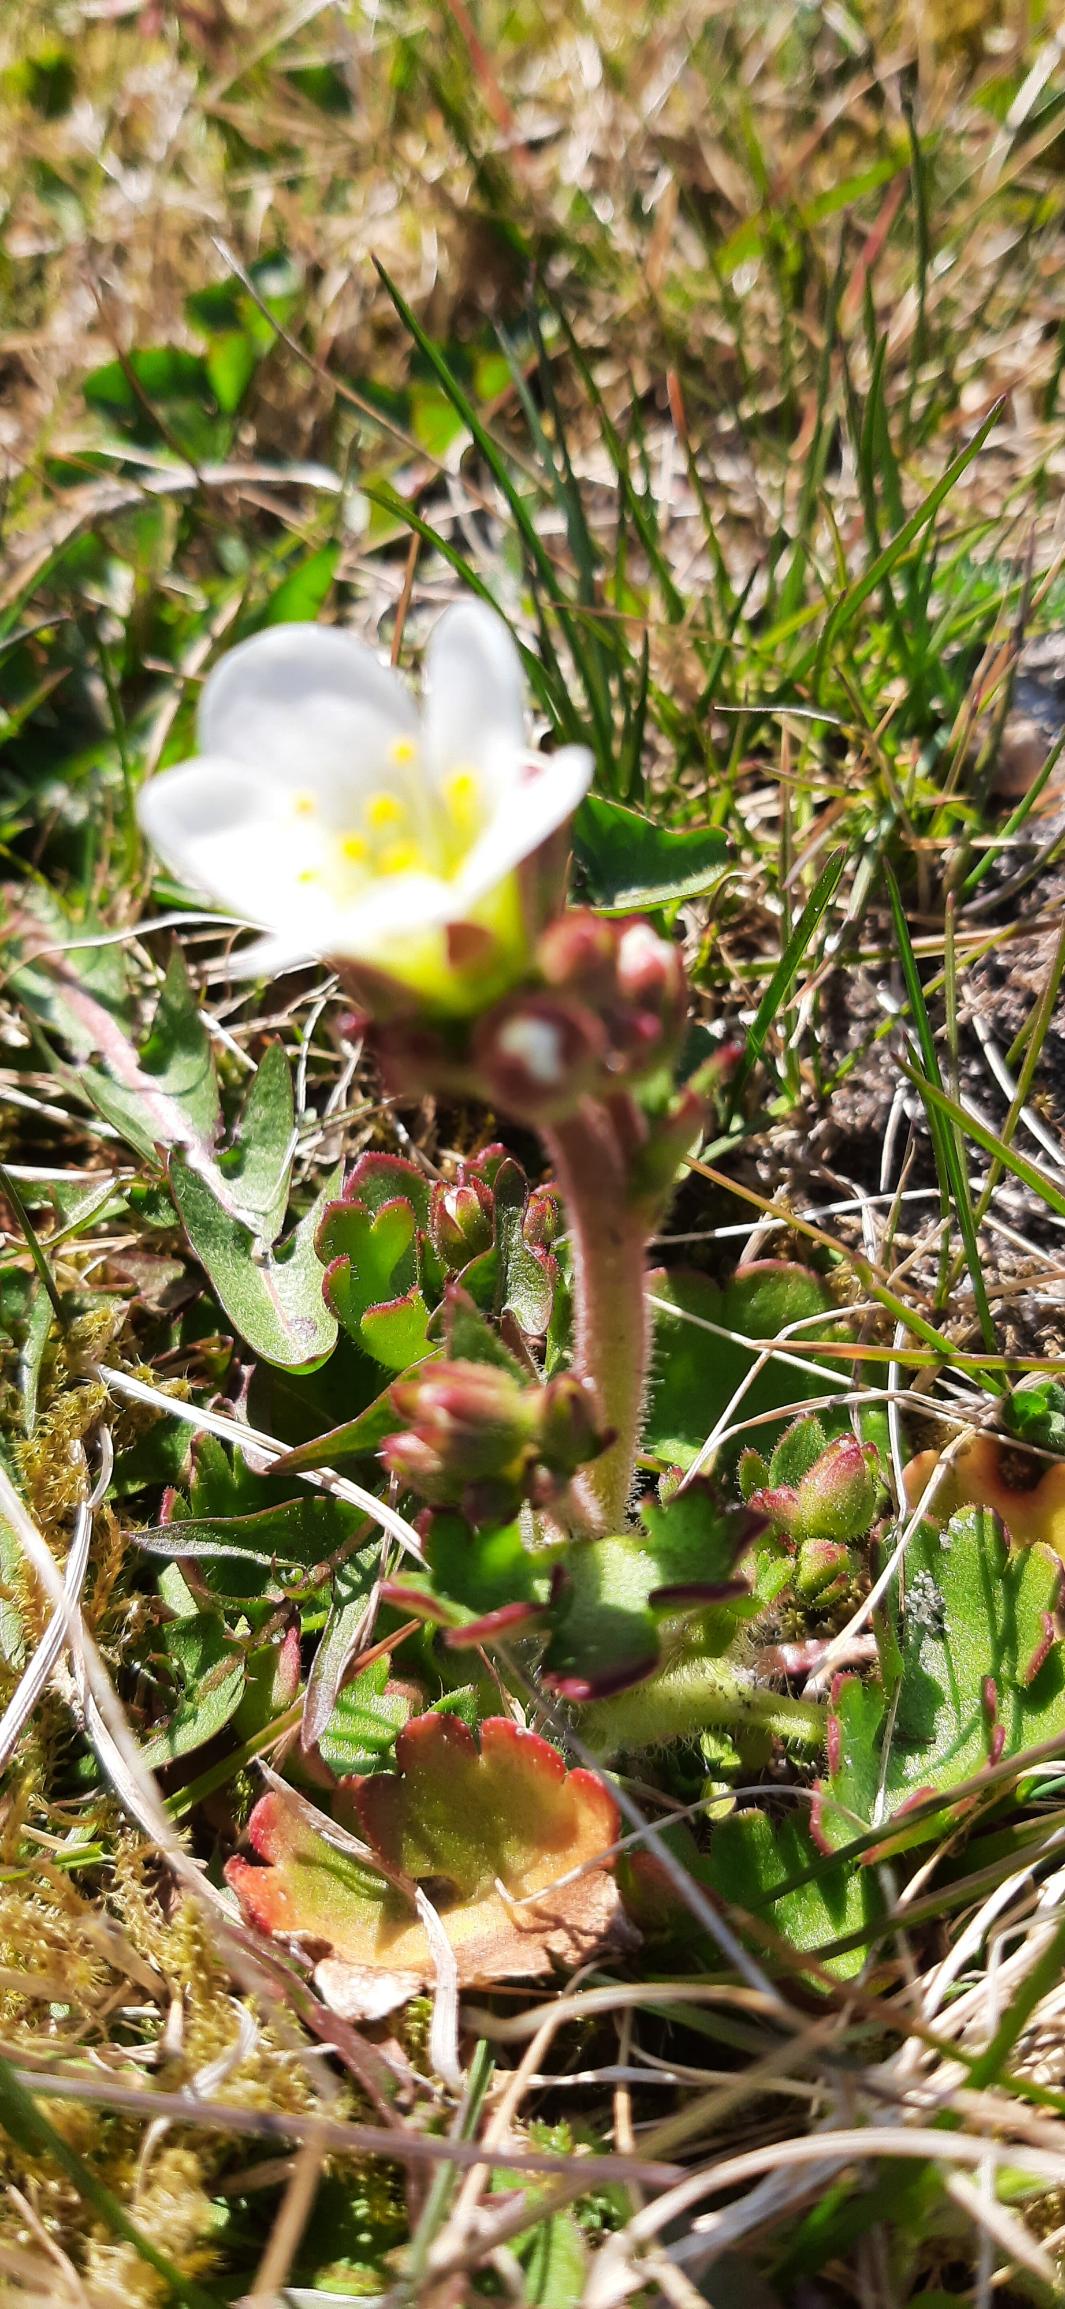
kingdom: Plantae
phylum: Tracheophyta
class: Magnoliopsida
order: Saxifragales
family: Saxifragaceae
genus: Saxifraga
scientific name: Saxifraga granulata
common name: Kornet stenbræk
